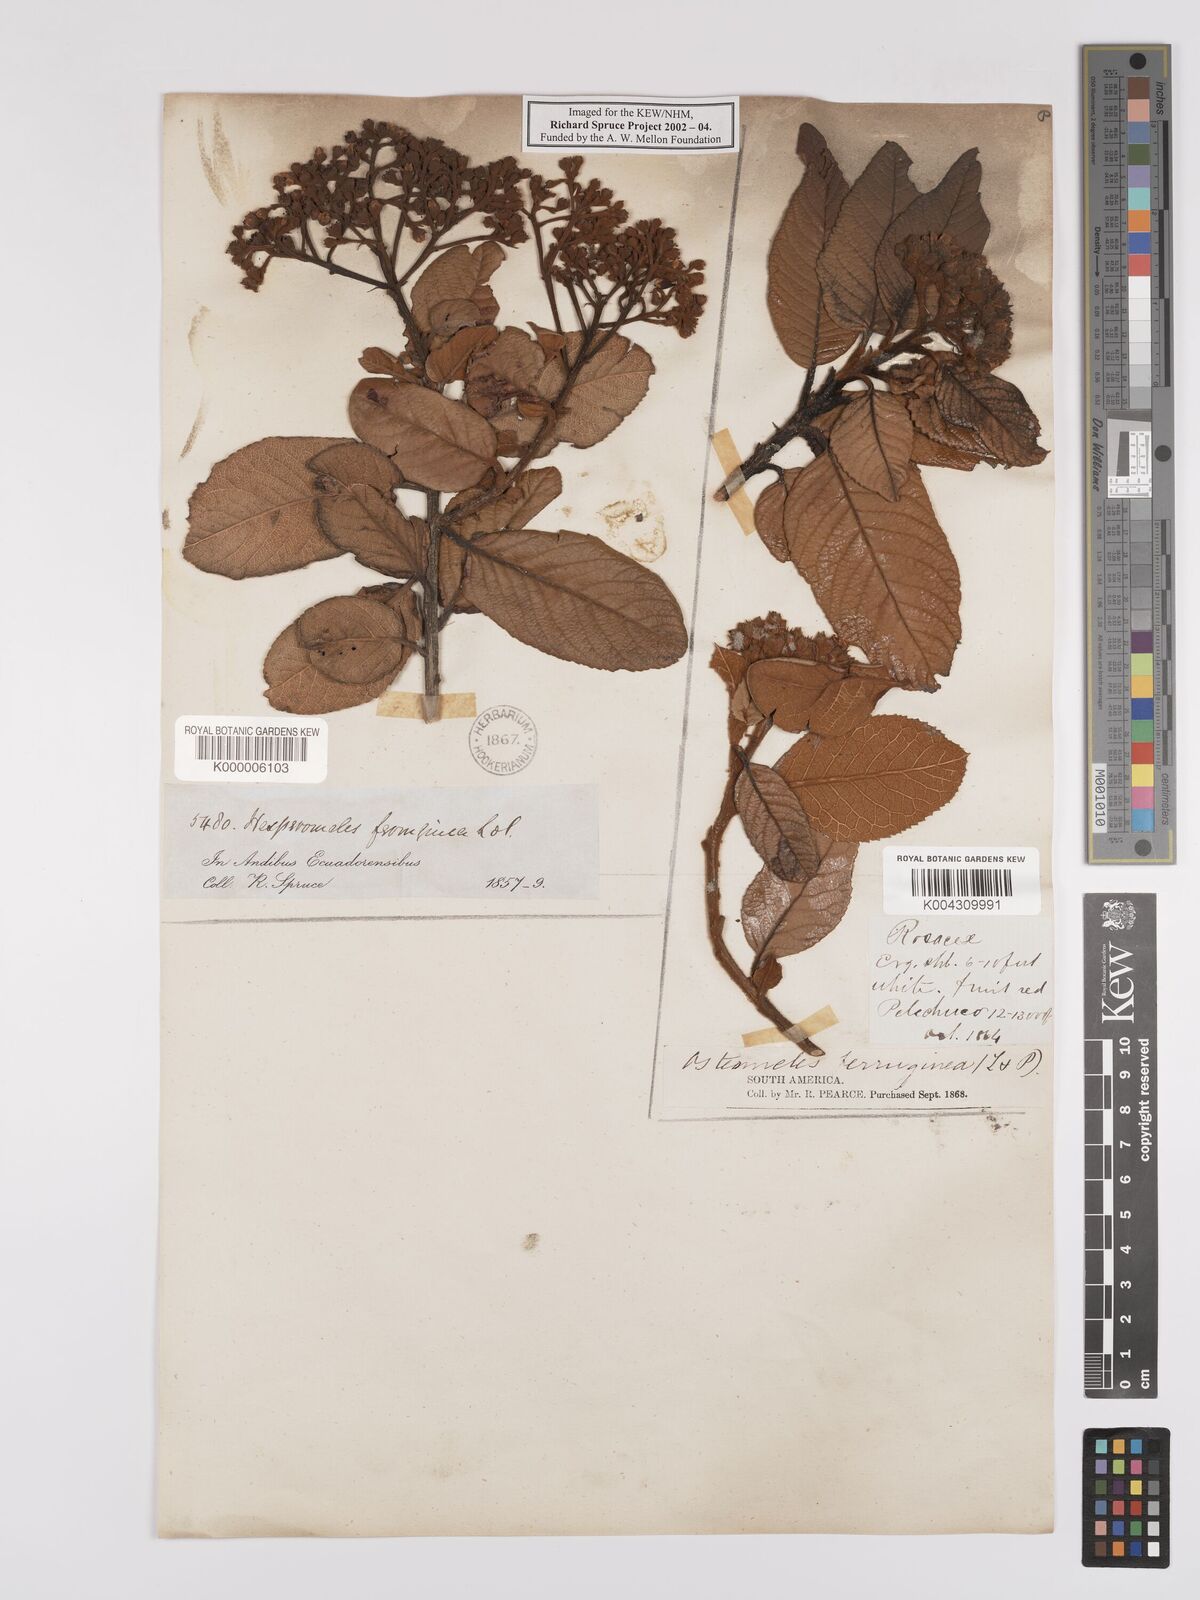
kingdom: Plantae
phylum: Tracheophyta
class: Magnoliopsida
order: Rosales
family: Rosaceae
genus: Hesperomeles
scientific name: Hesperomeles
